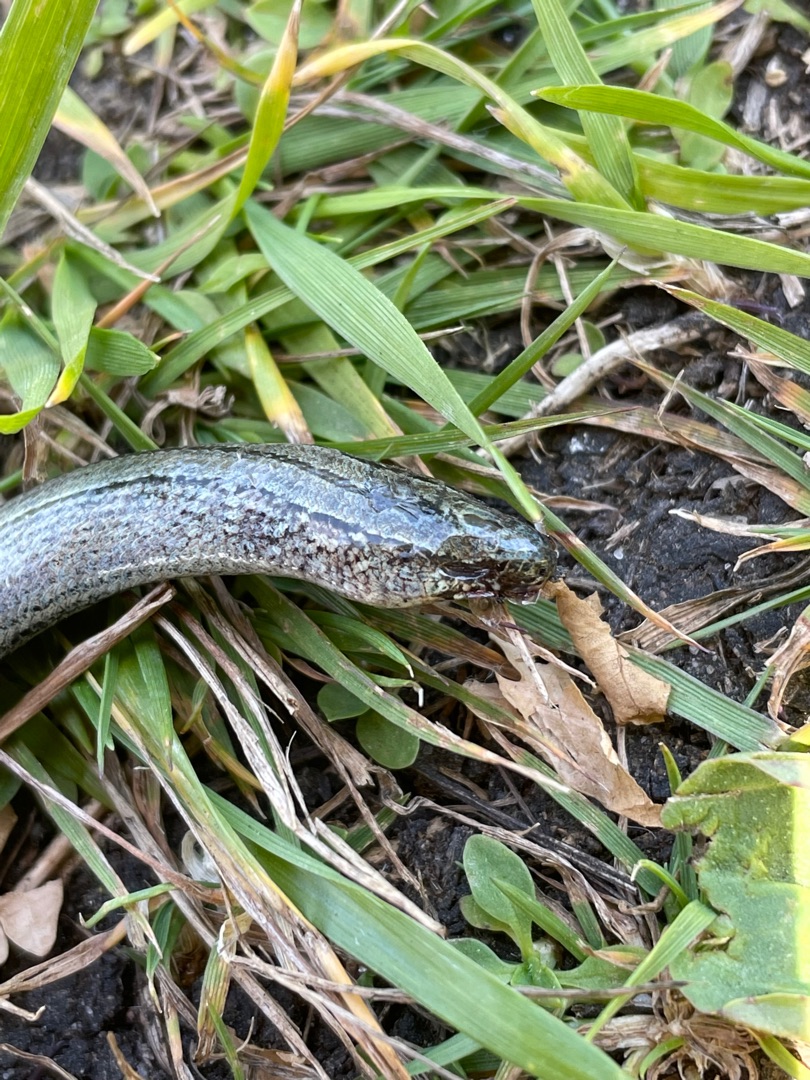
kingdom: Animalia
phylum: Chordata
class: Squamata
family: Anguidae
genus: Anguis
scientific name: Anguis fragilis
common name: Stålorm
